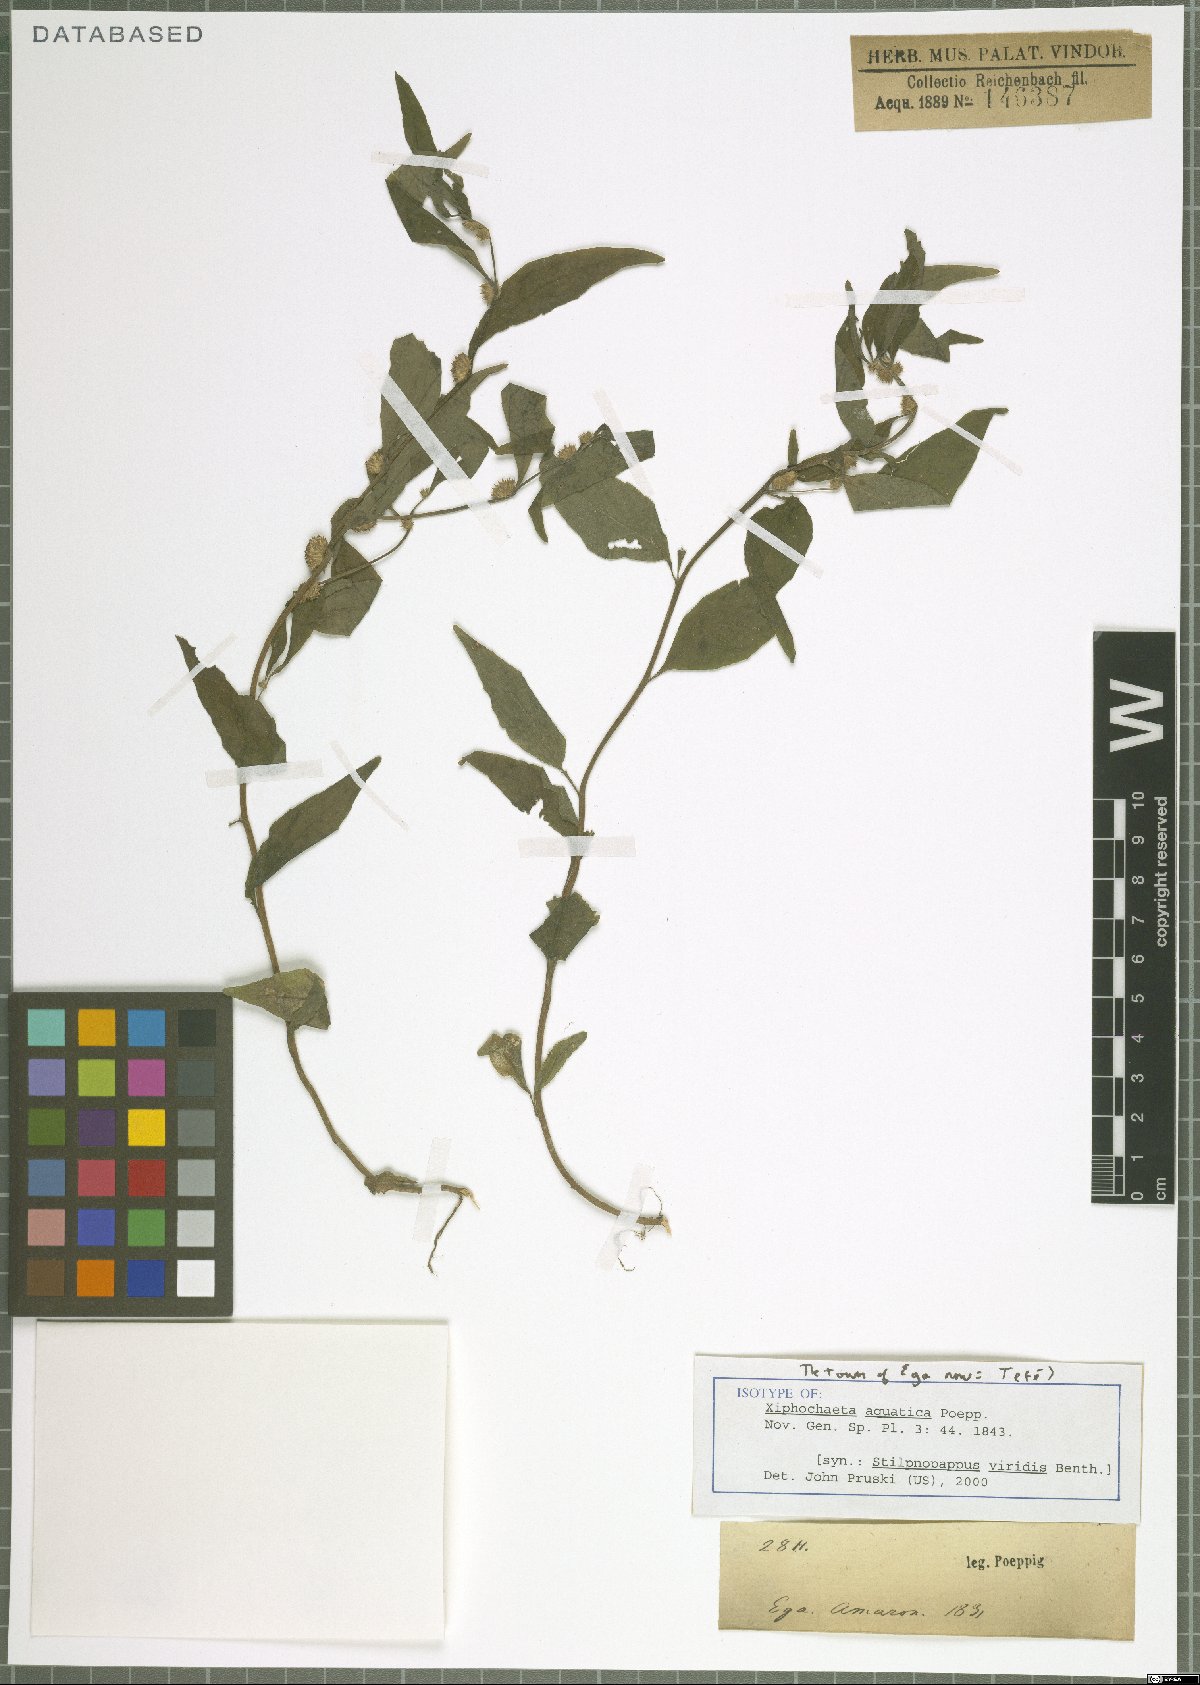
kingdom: Plantae
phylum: Tracheophyta
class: Magnoliopsida
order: Asterales
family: Asteraceae
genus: Xiphochaeta
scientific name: Xiphochaeta aquatica
